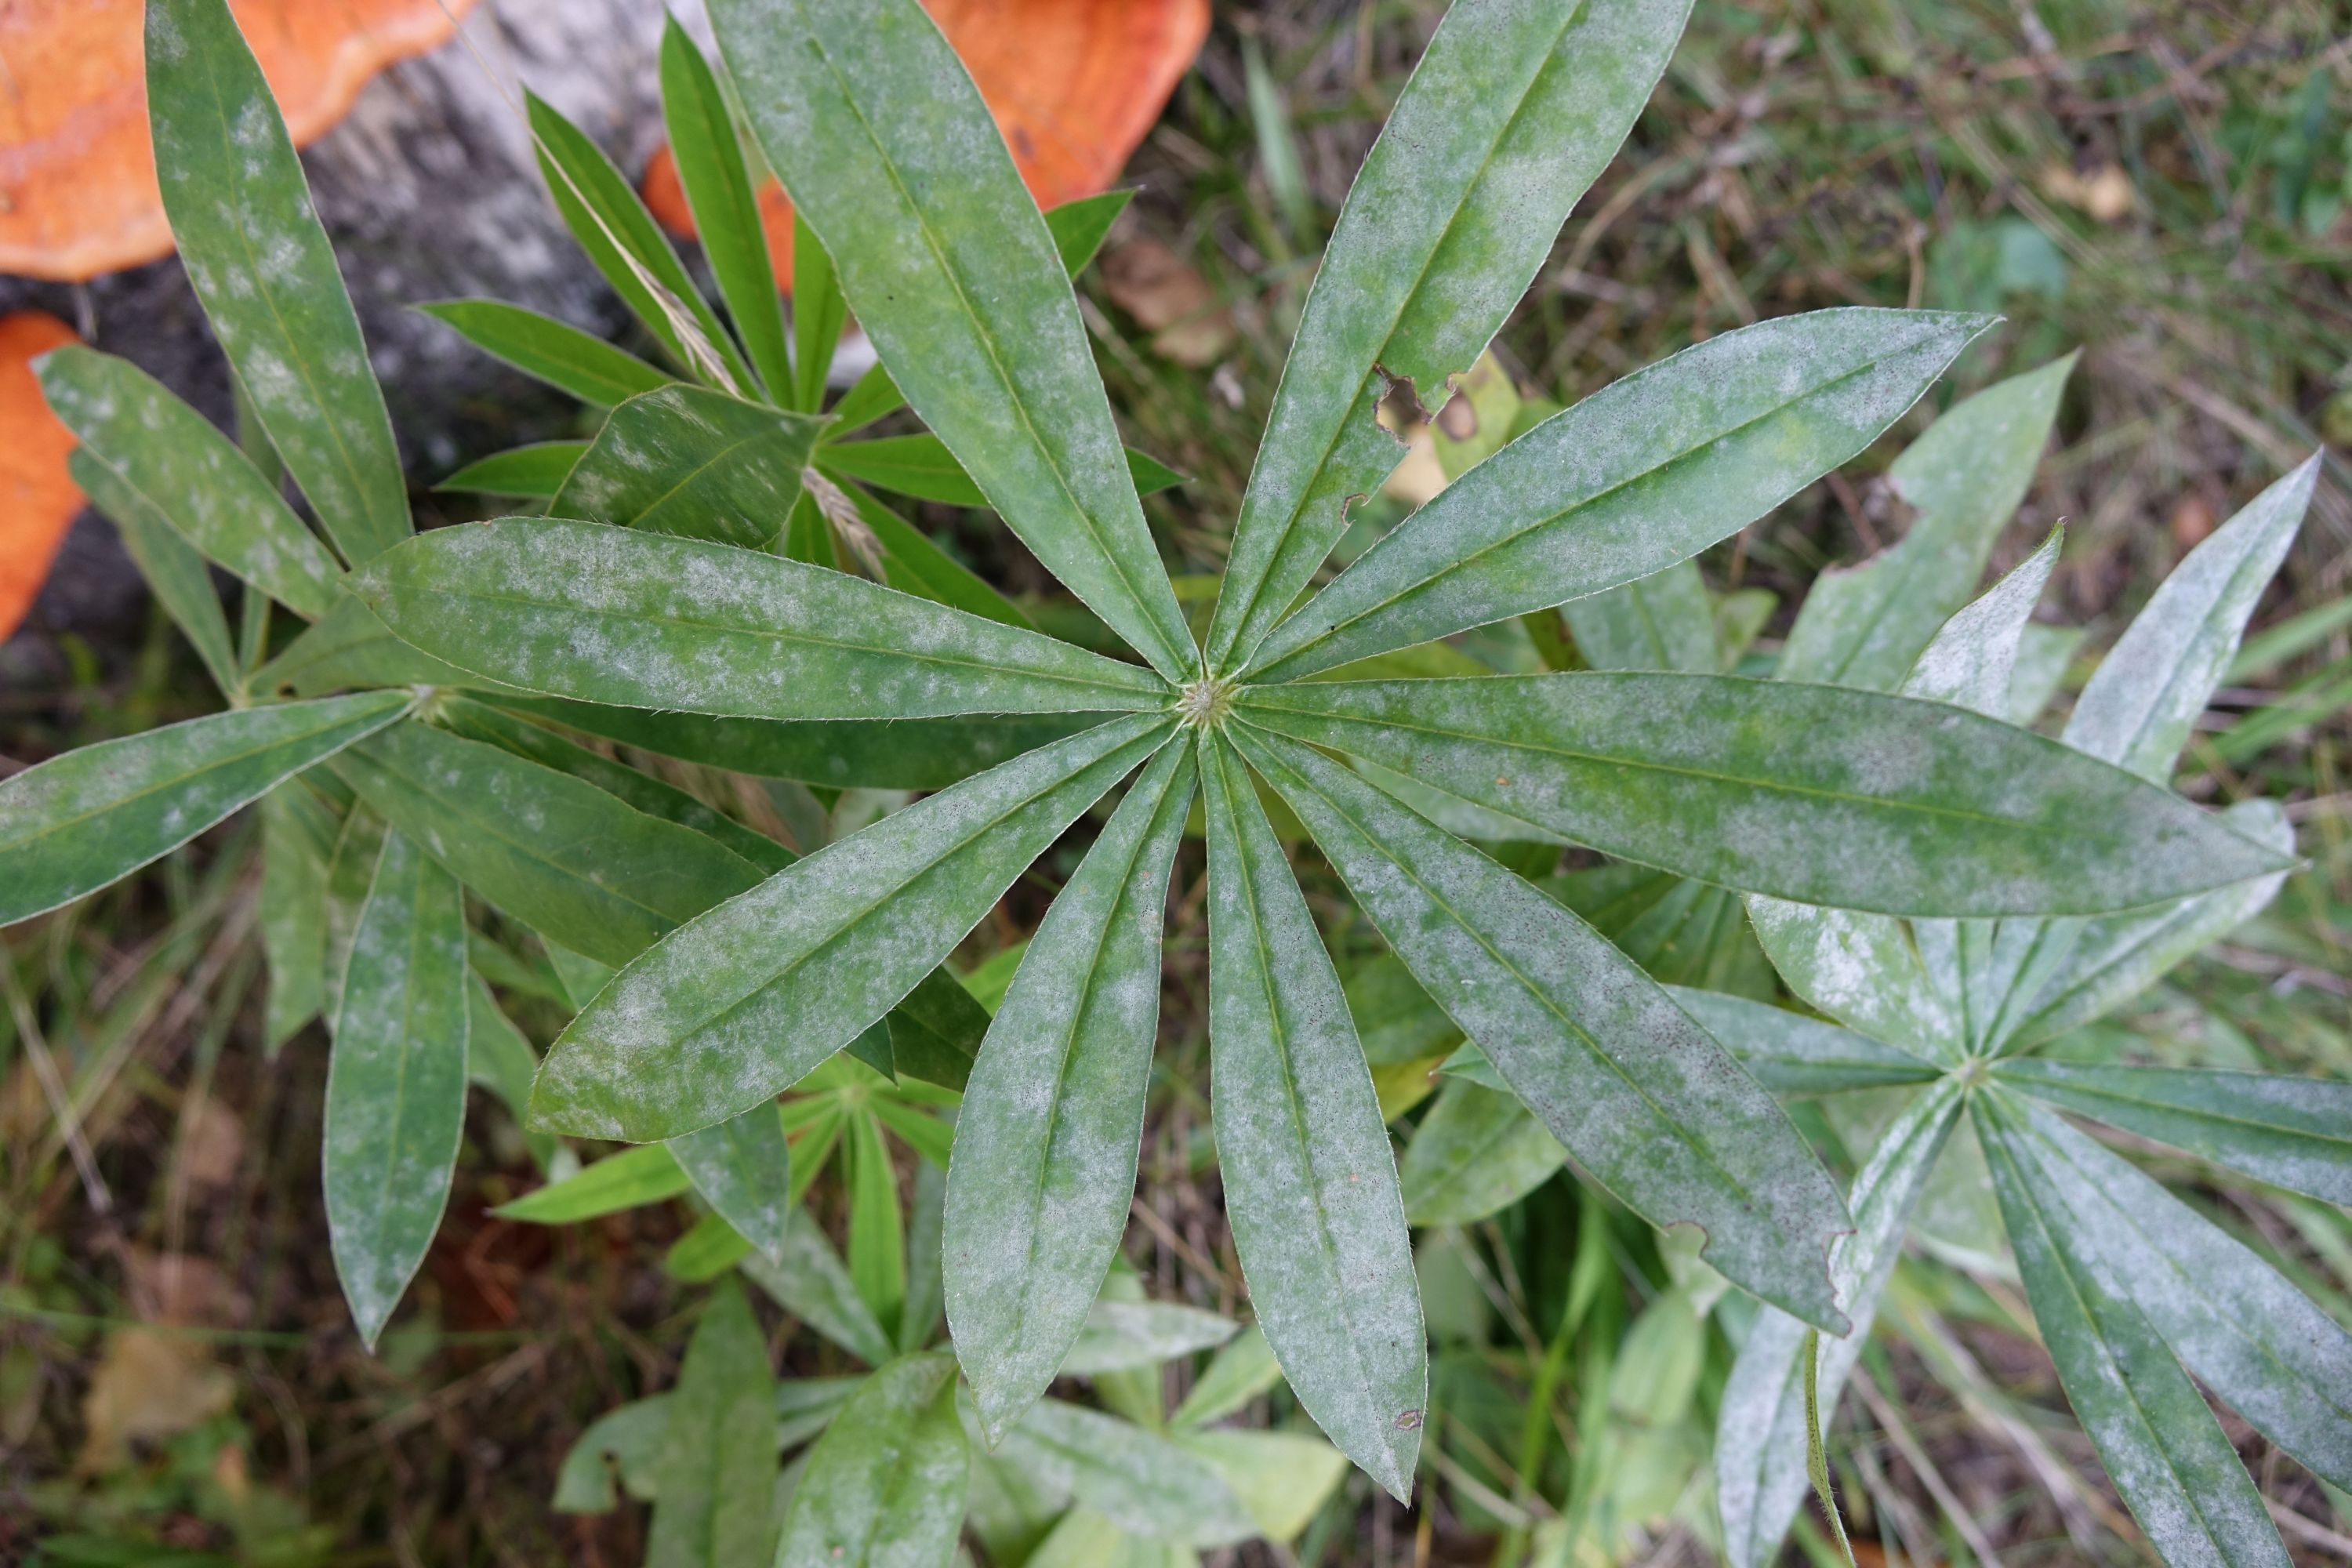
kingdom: Fungi
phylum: Ascomycota
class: Leotiomycetes
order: Helotiales
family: Erysiphaceae
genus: Erysiphe
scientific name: Erysiphe intermedia
